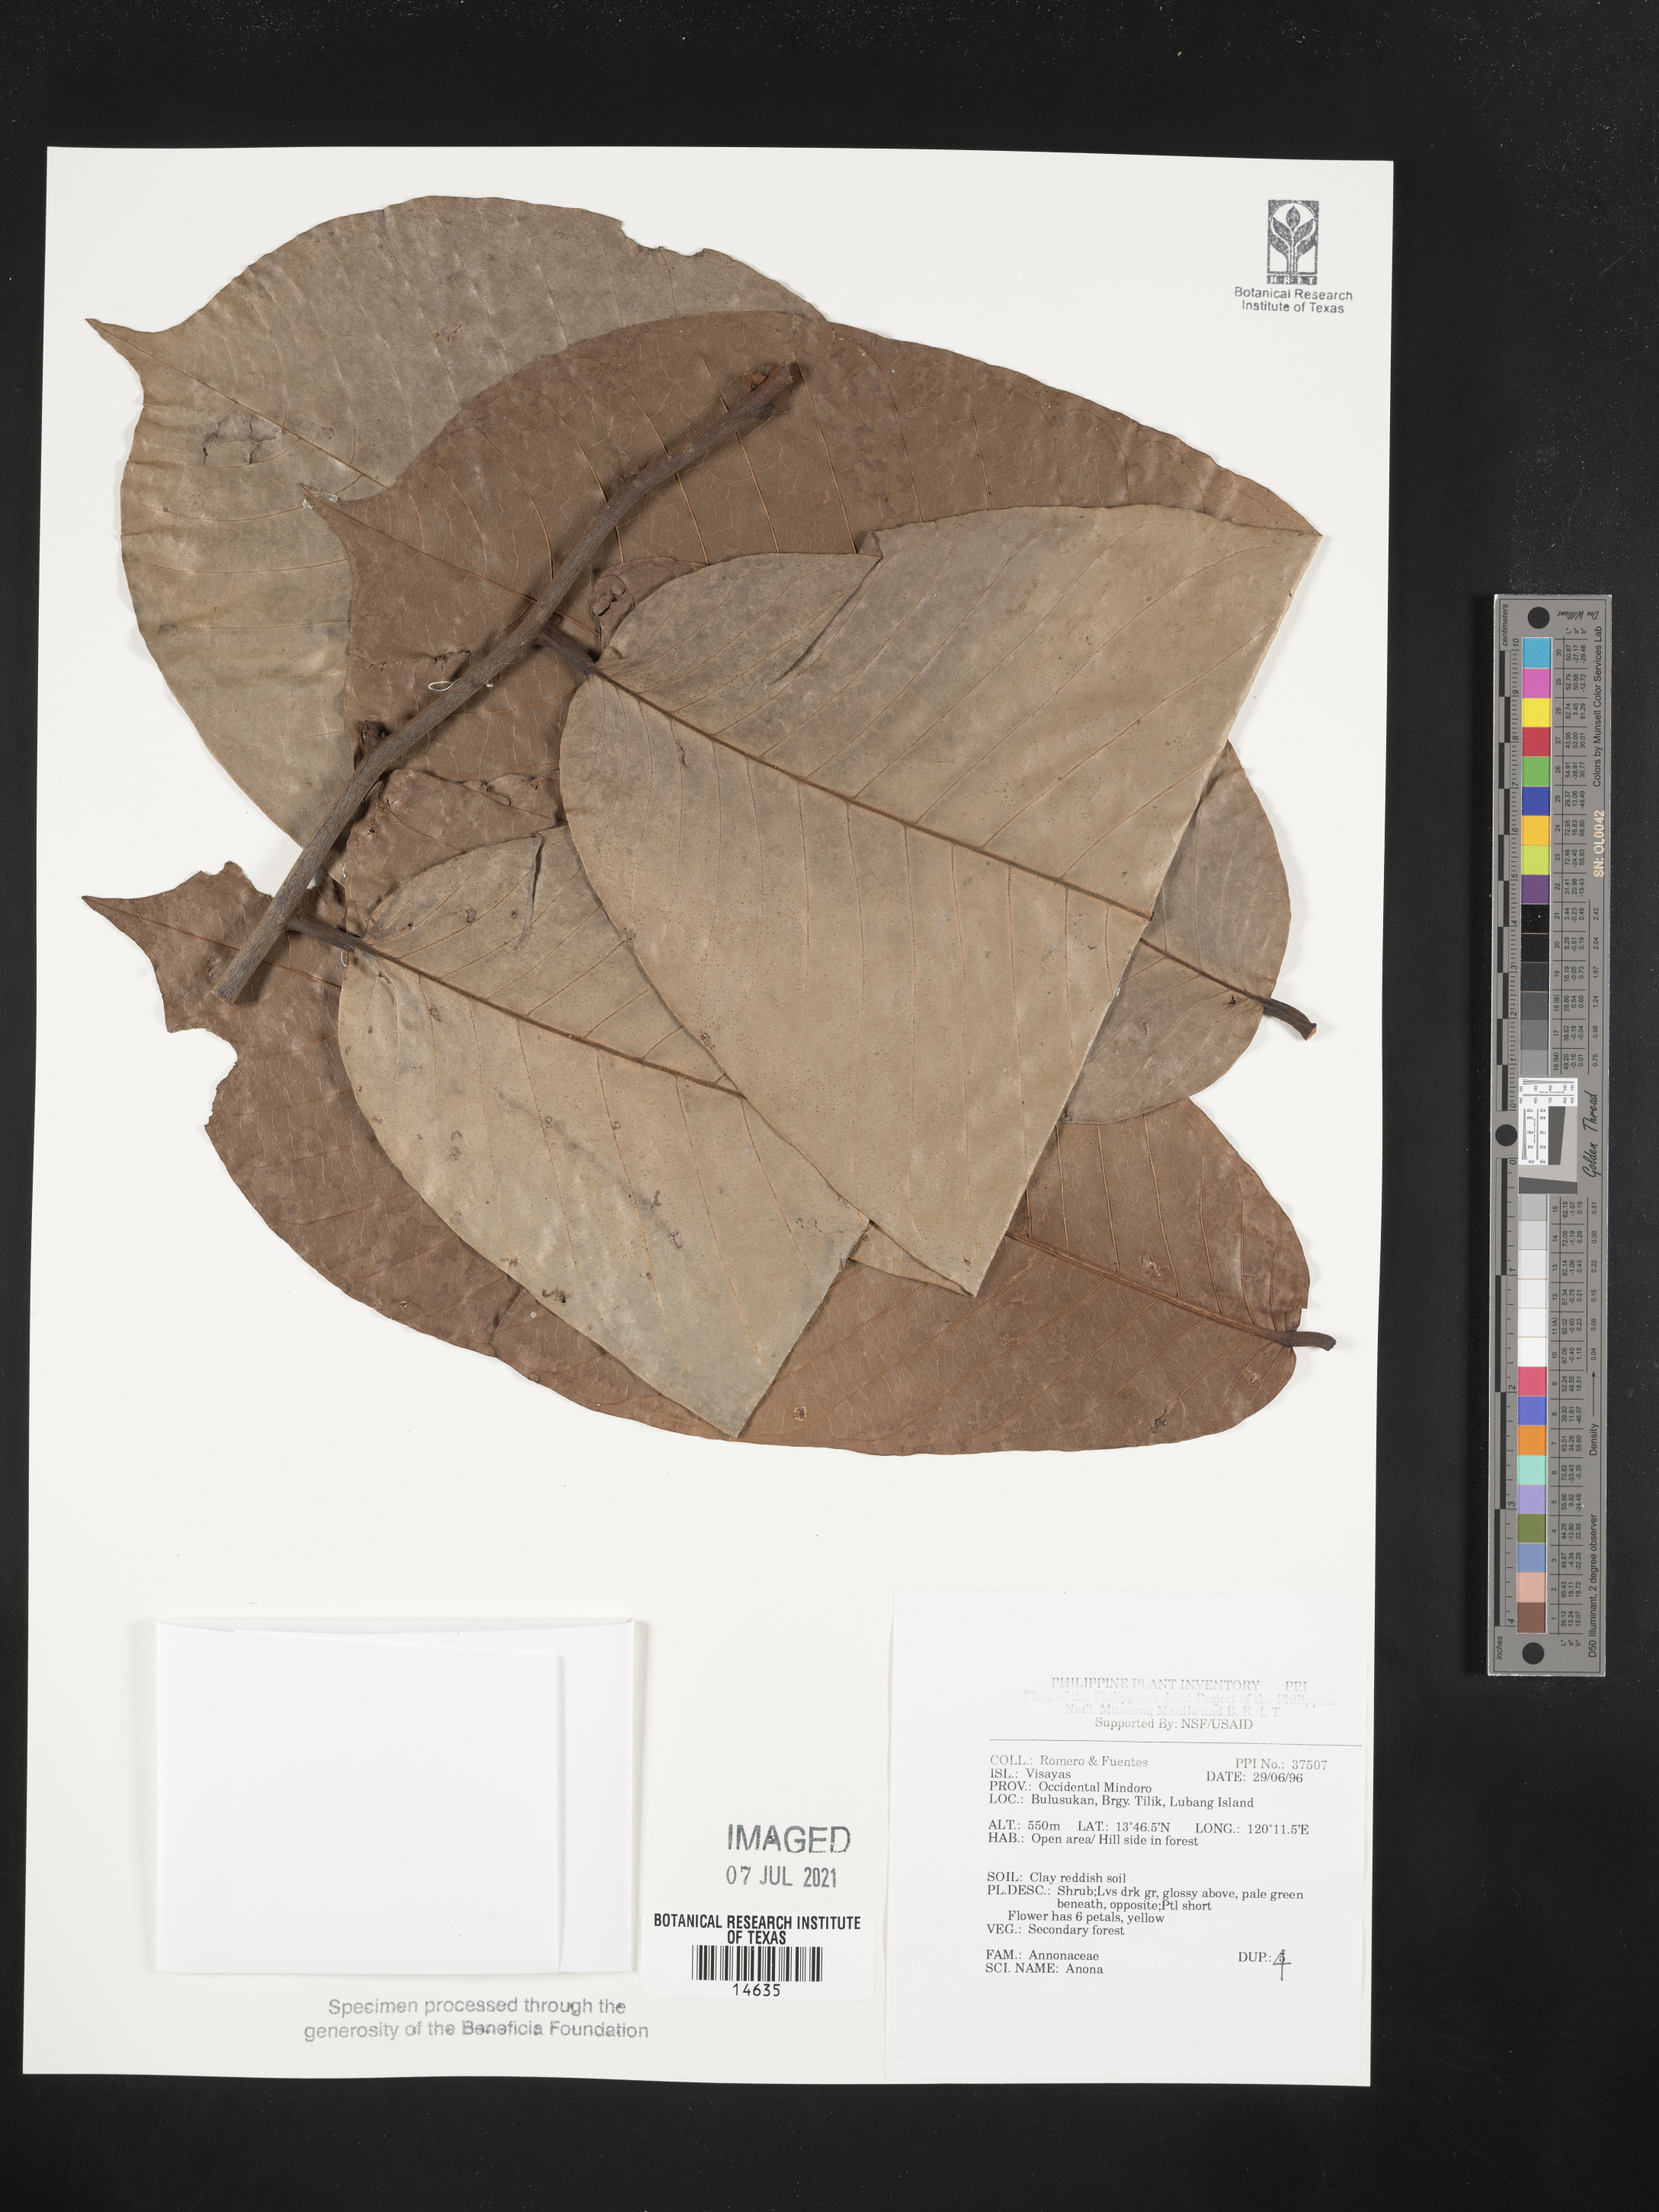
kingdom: Plantae
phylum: Tracheophyta
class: Magnoliopsida
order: Magnoliales
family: Annonaceae
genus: Annona
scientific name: Annona
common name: Anona
